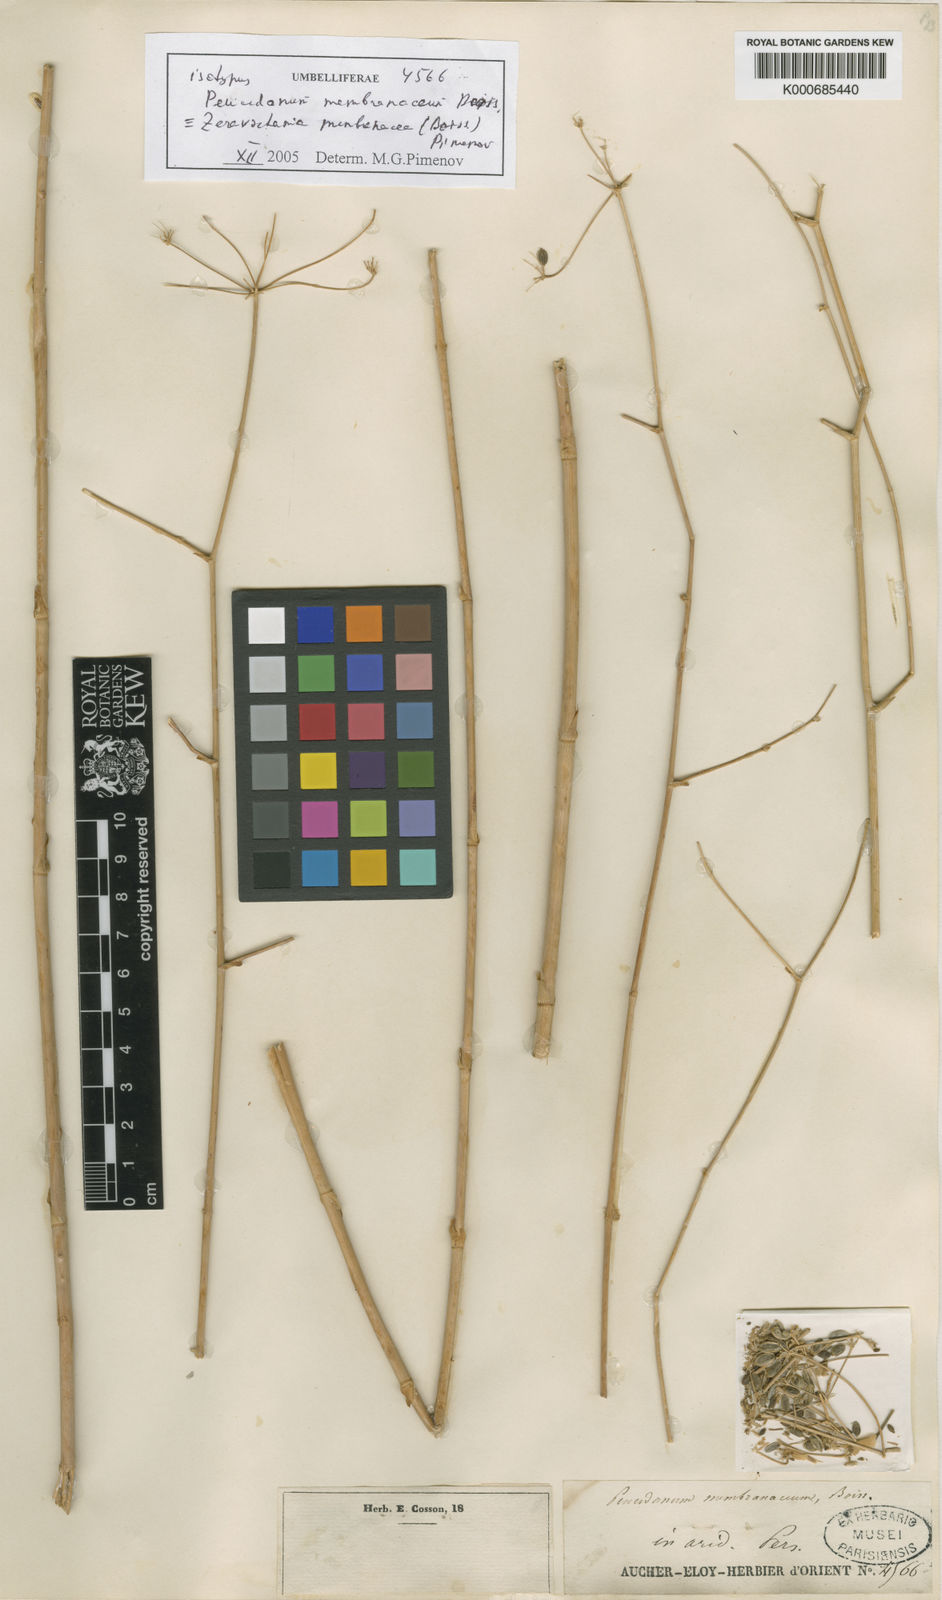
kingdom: Plantae
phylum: Tracheophyta
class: Magnoliopsida
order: Apiales
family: Apiaceae
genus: Zeravschania
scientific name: Zeravschania membranacea
